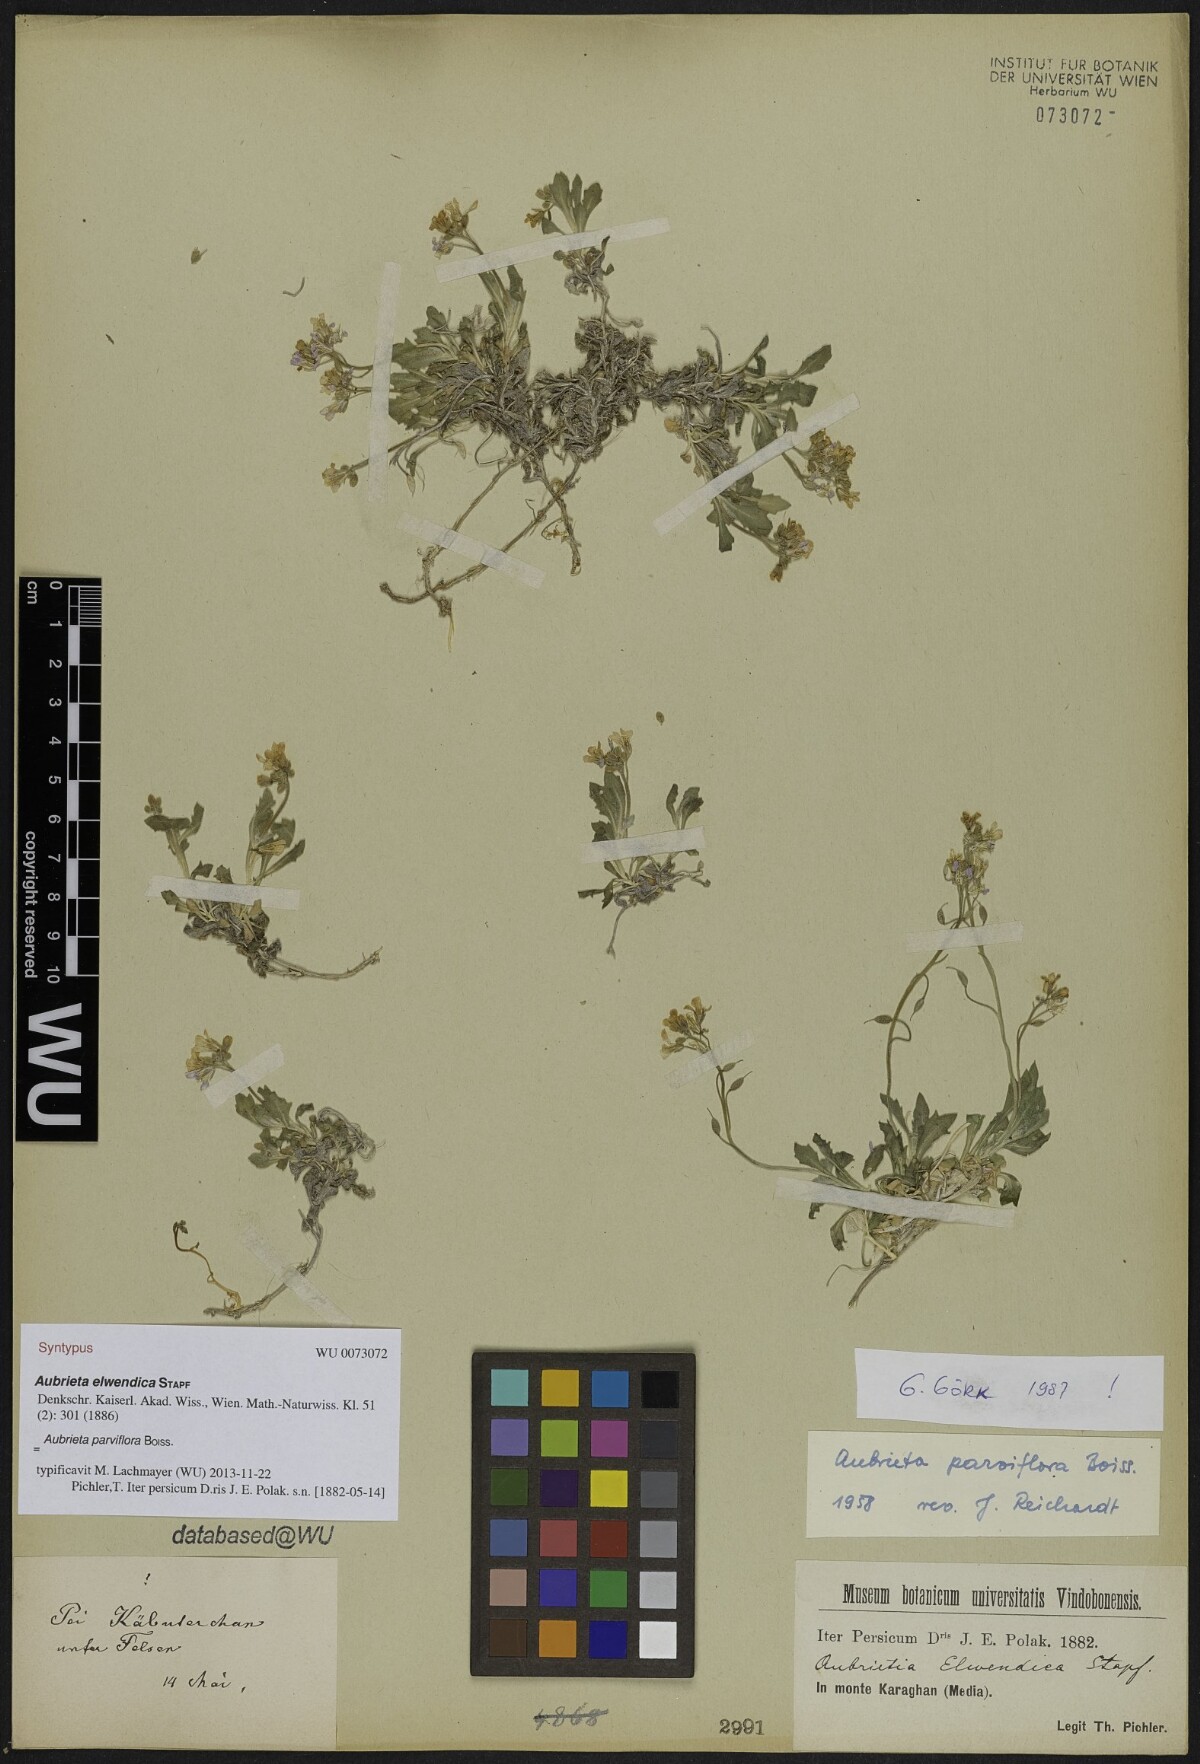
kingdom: Plantae
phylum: Tracheophyta
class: Magnoliopsida
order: Brassicales
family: Brassicaceae
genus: Aubrieta
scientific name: Aubrieta parviflora
